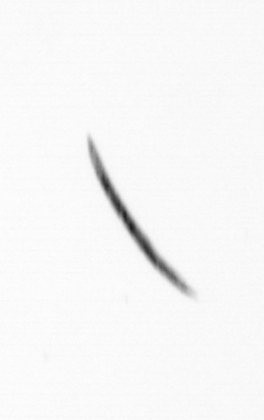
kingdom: Bacteria
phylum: Cyanobacteria
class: Cyanobacteriia
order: Cyanobacteriales
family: Microcoleaceae
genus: Trichodesmium
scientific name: Trichodesmium
